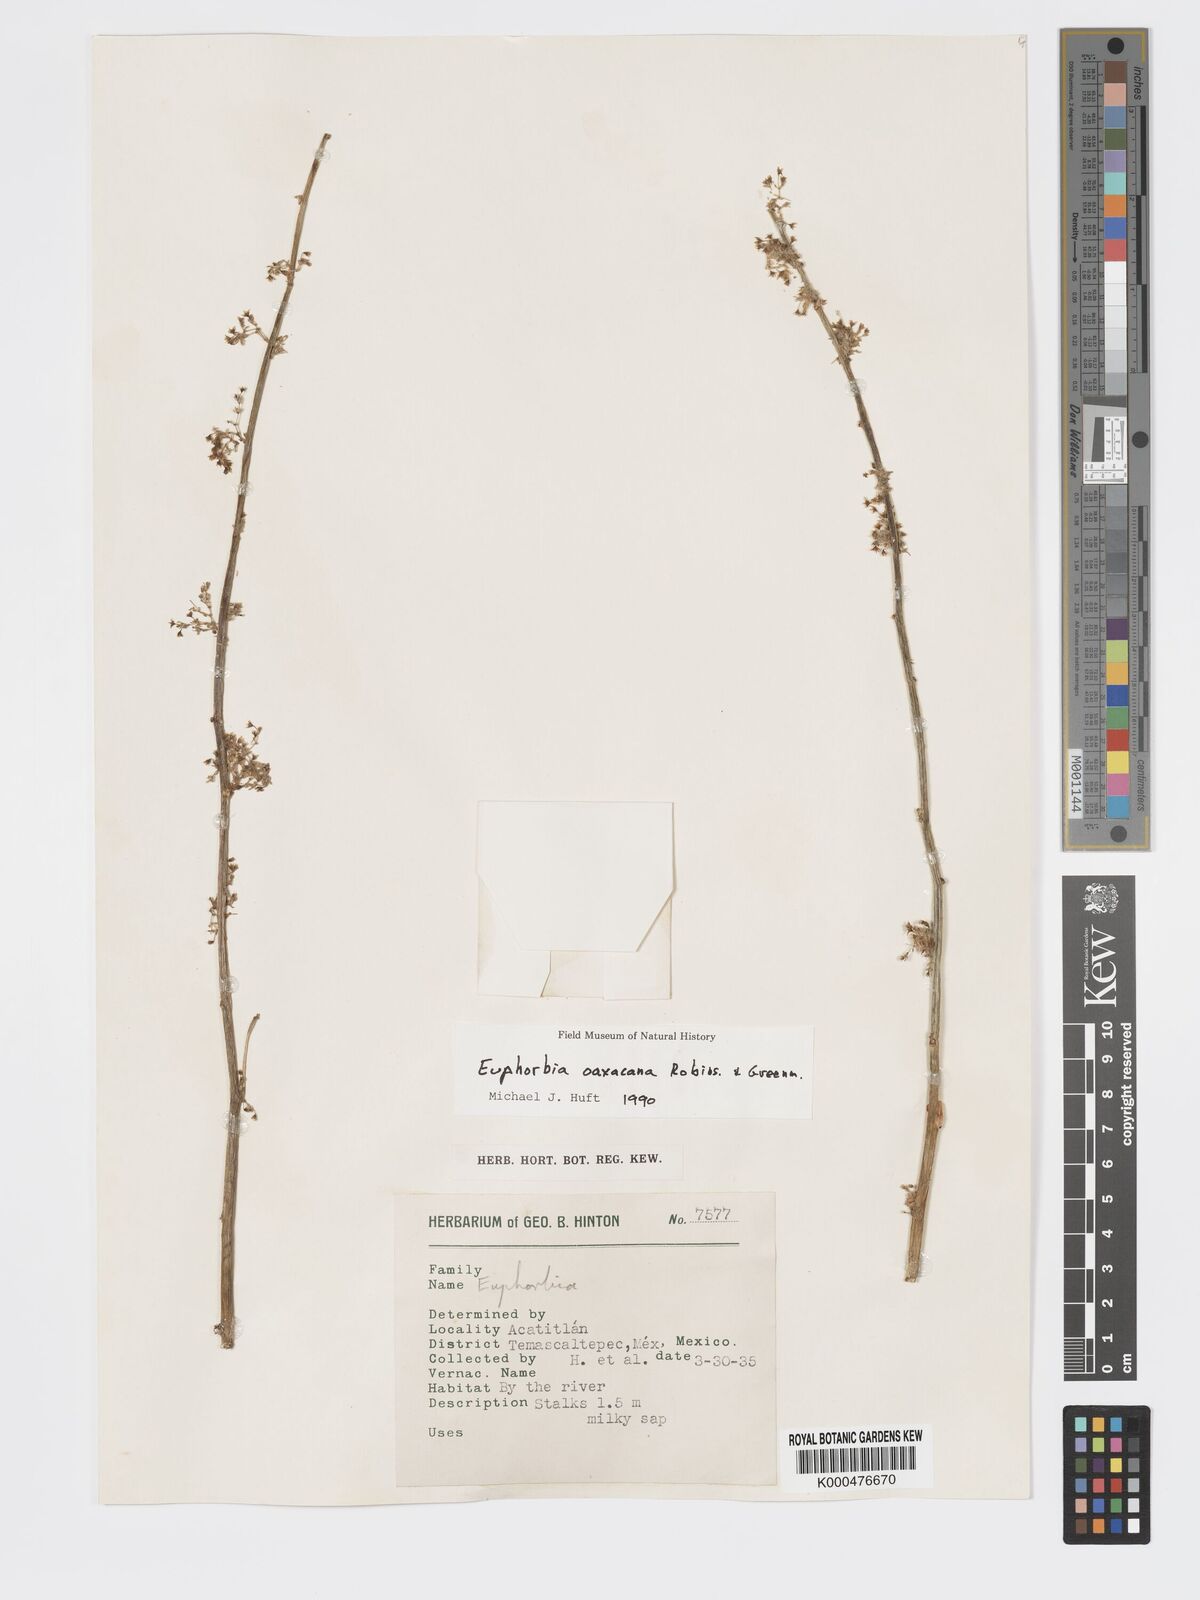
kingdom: Plantae
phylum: Tracheophyta
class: Magnoliopsida
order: Malpighiales
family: Euphorbiaceae
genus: Euphorbia
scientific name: Euphorbia oaxacana
